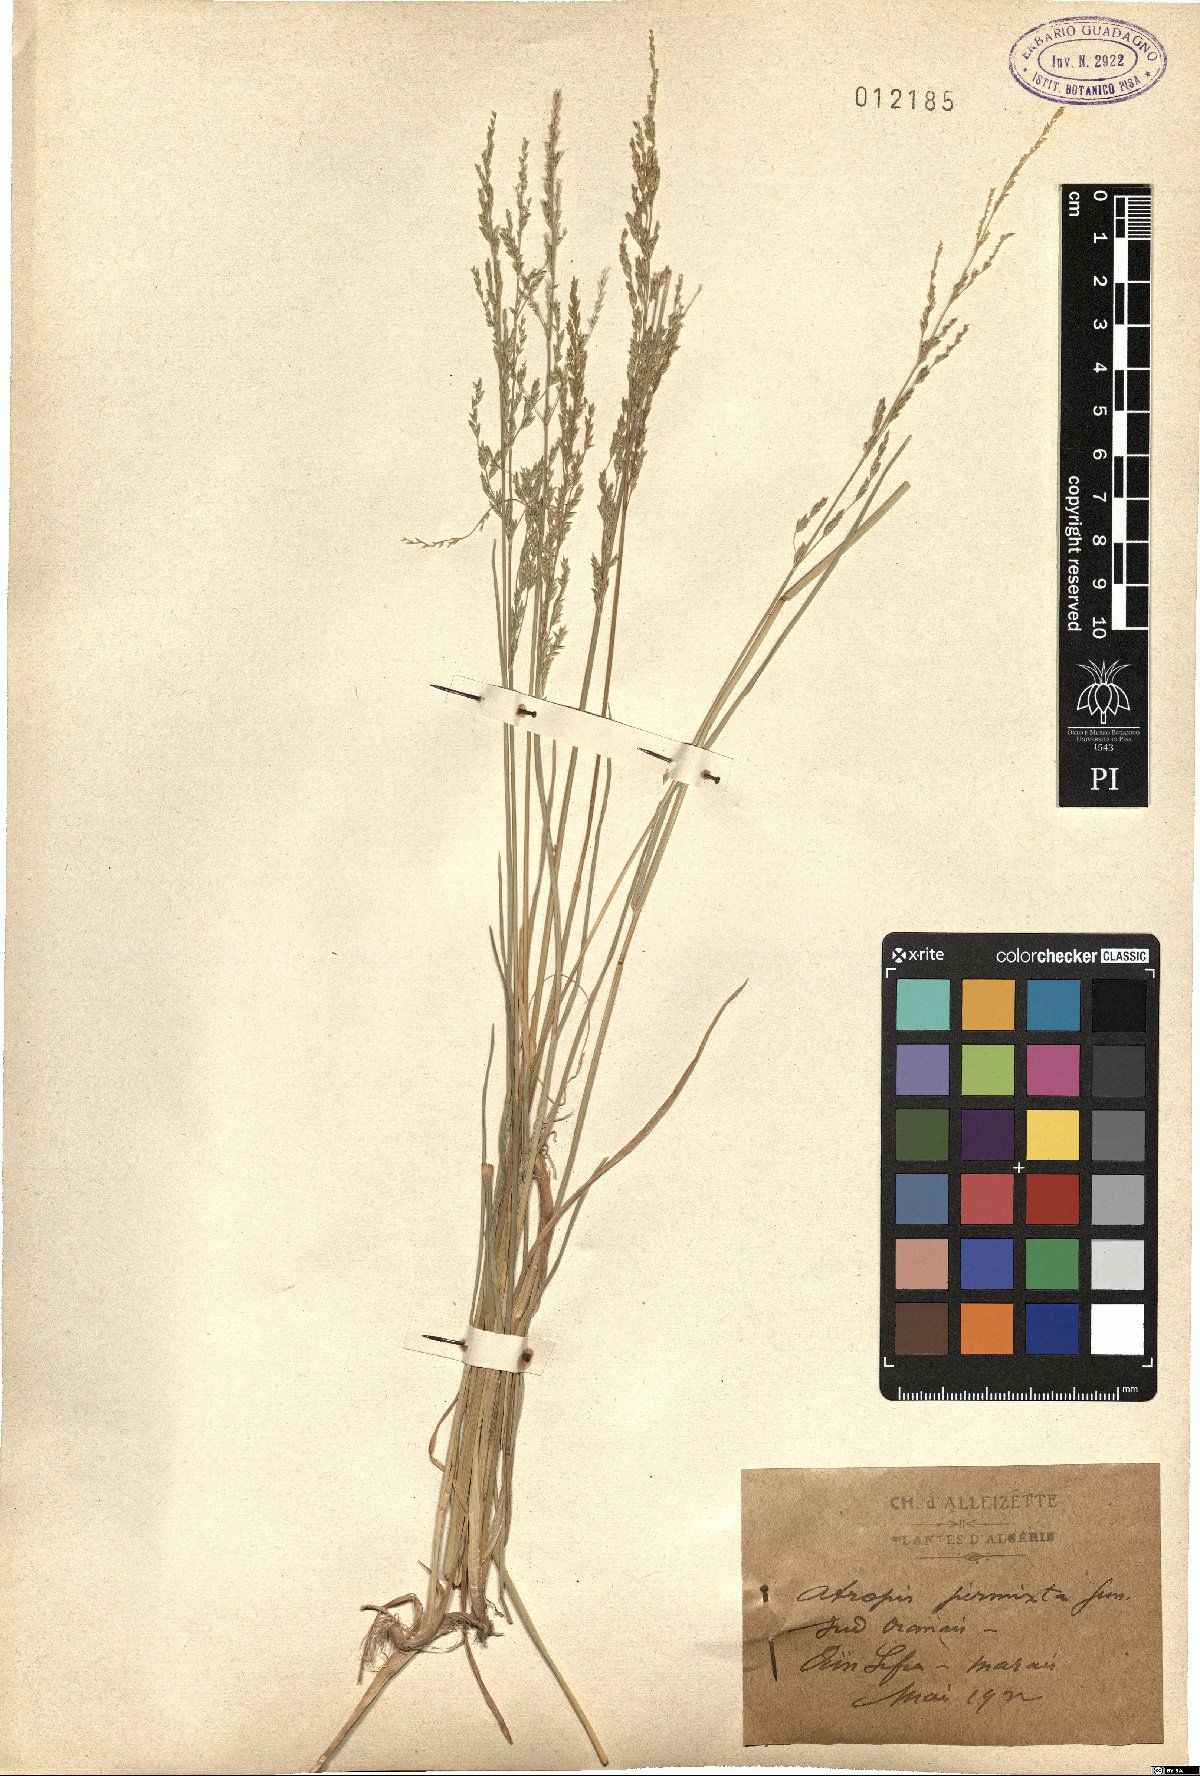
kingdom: Plantae
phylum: Tracheophyta
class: Liliopsida
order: Poales
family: Poaceae
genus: Puccinellia
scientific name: Puccinellia fasciculata
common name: Borrer's saltmarsh-grass
